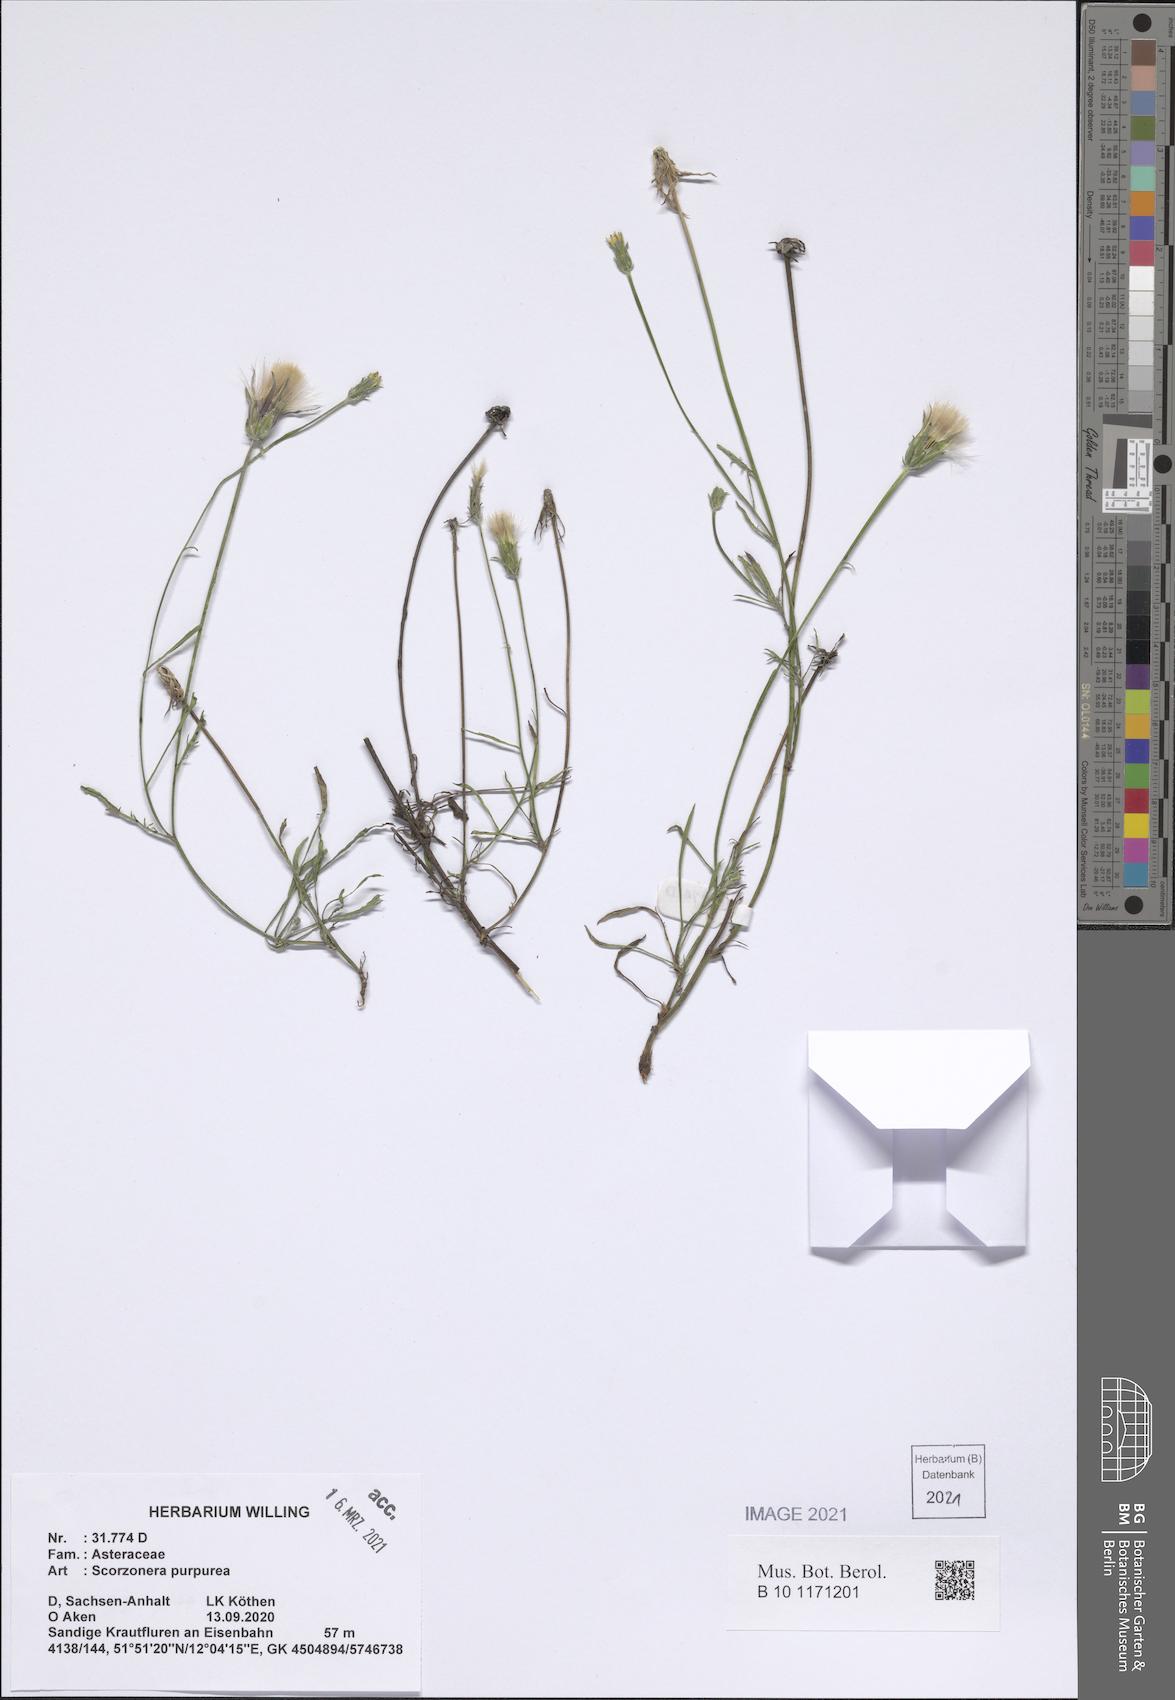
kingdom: Plantae
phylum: Tracheophyta
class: Magnoliopsida
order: Asterales
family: Asteraceae
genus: Scorzonera
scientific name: Scorzonera purpurea
